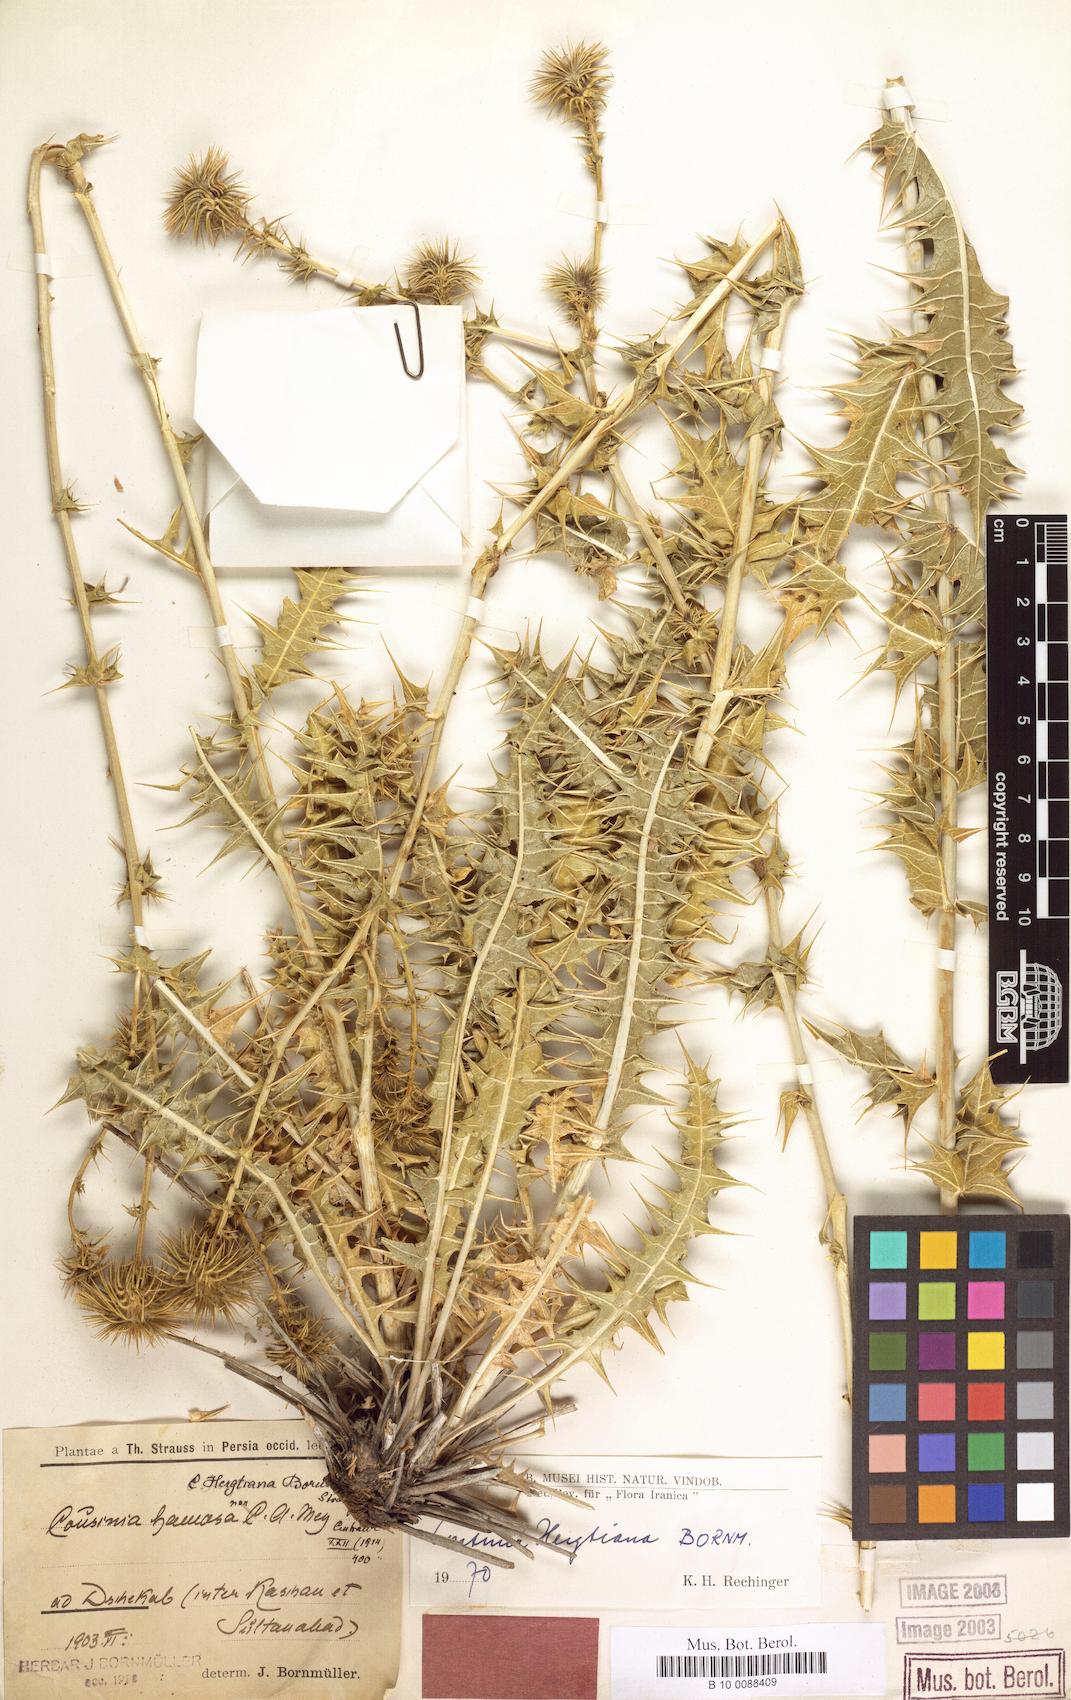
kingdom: Plantae
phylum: Tracheophyta
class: Magnoliopsida
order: Asterales
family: Asteraceae
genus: Cousinia
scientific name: Cousinia hergtiana
